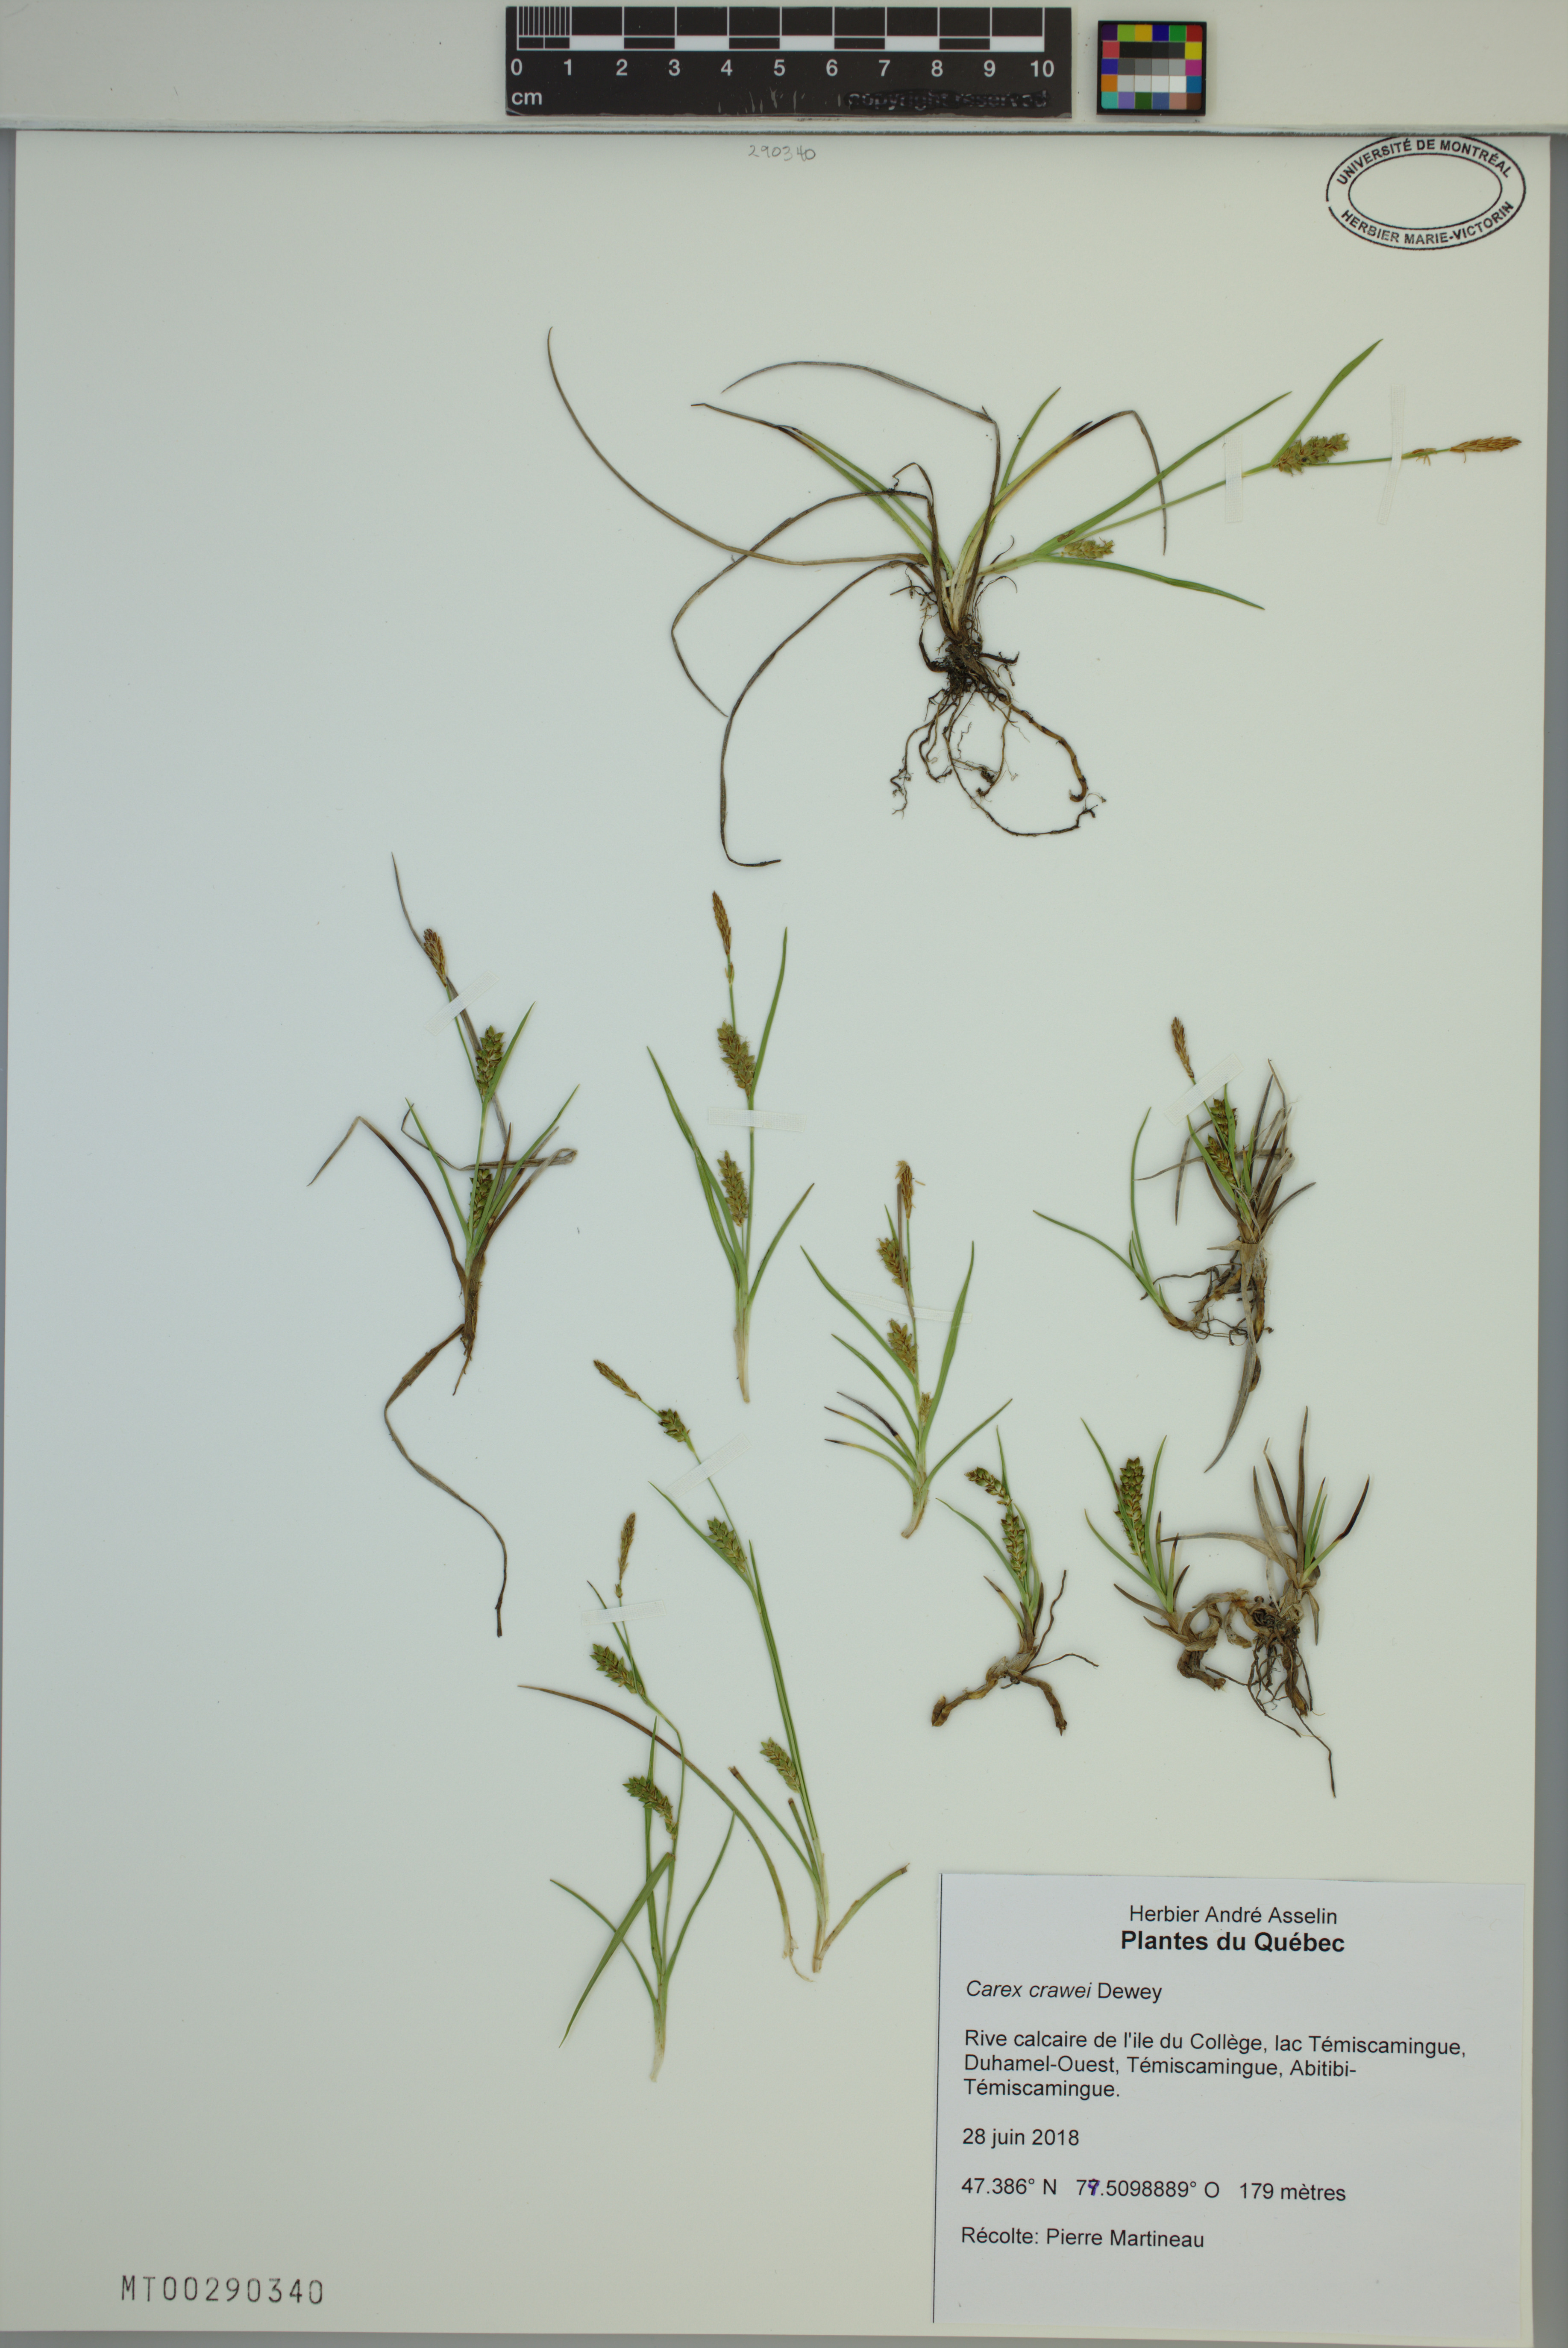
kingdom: Plantae
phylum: Tracheophyta
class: Liliopsida
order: Poales
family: Cyperaceae
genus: Carex
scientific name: Carex crawei
